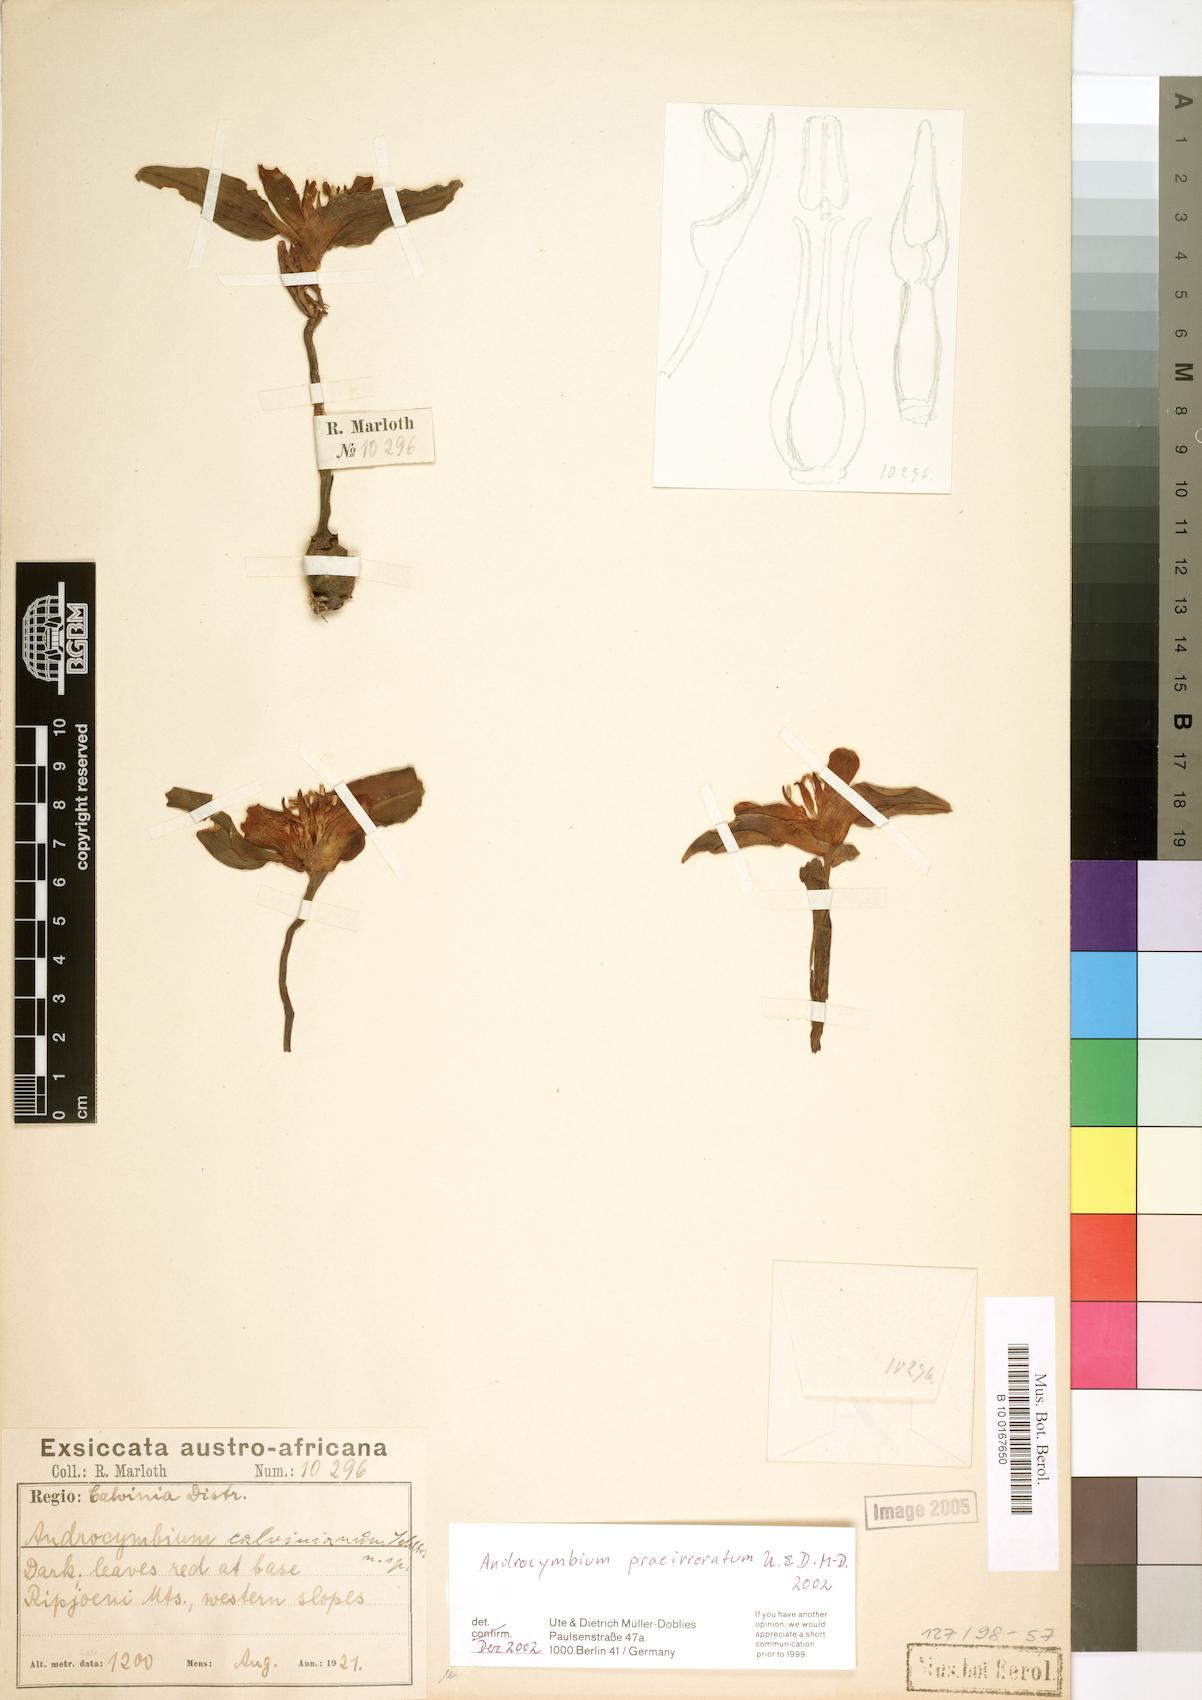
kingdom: Plantae
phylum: Tracheophyta
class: Liliopsida
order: Liliales
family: Colchicaceae
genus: Colchicum
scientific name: Colchicum praeirroratum
